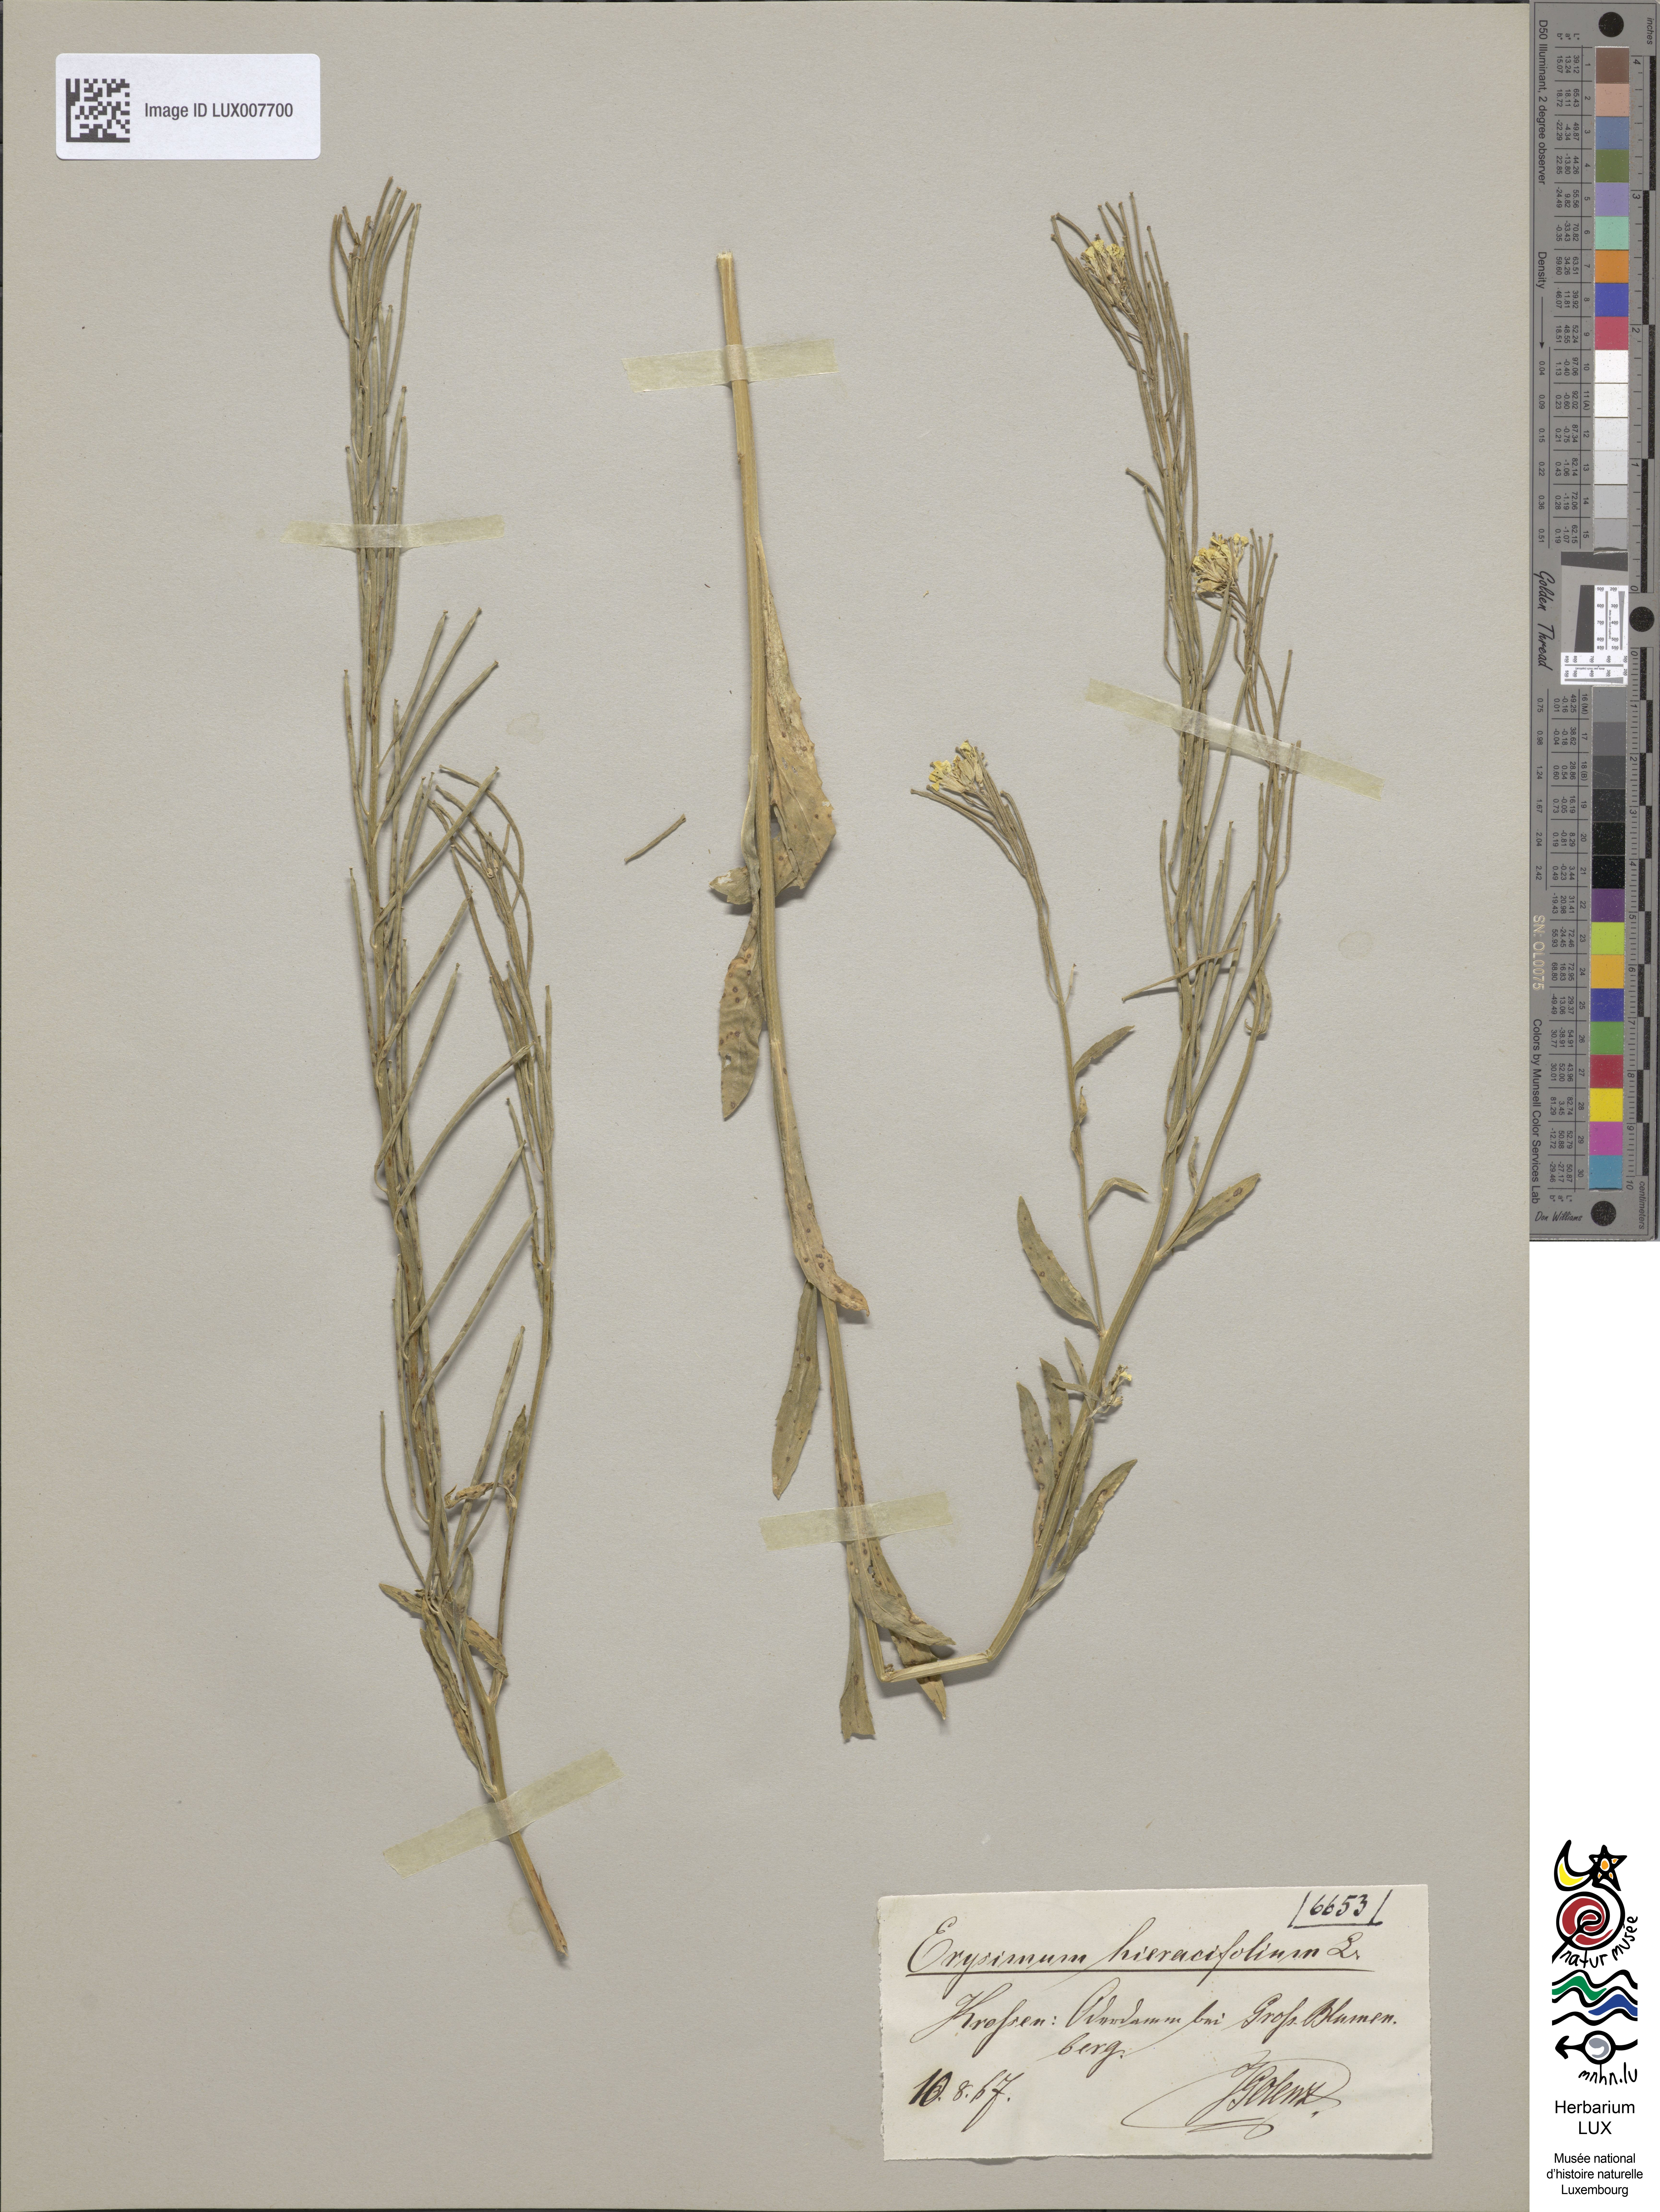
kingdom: Plantae
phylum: Tracheophyta
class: Magnoliopsida
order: Brassicales
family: Brassicaceae
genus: Erysimum
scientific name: Erysimum hieraciifolium
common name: European wallflower
